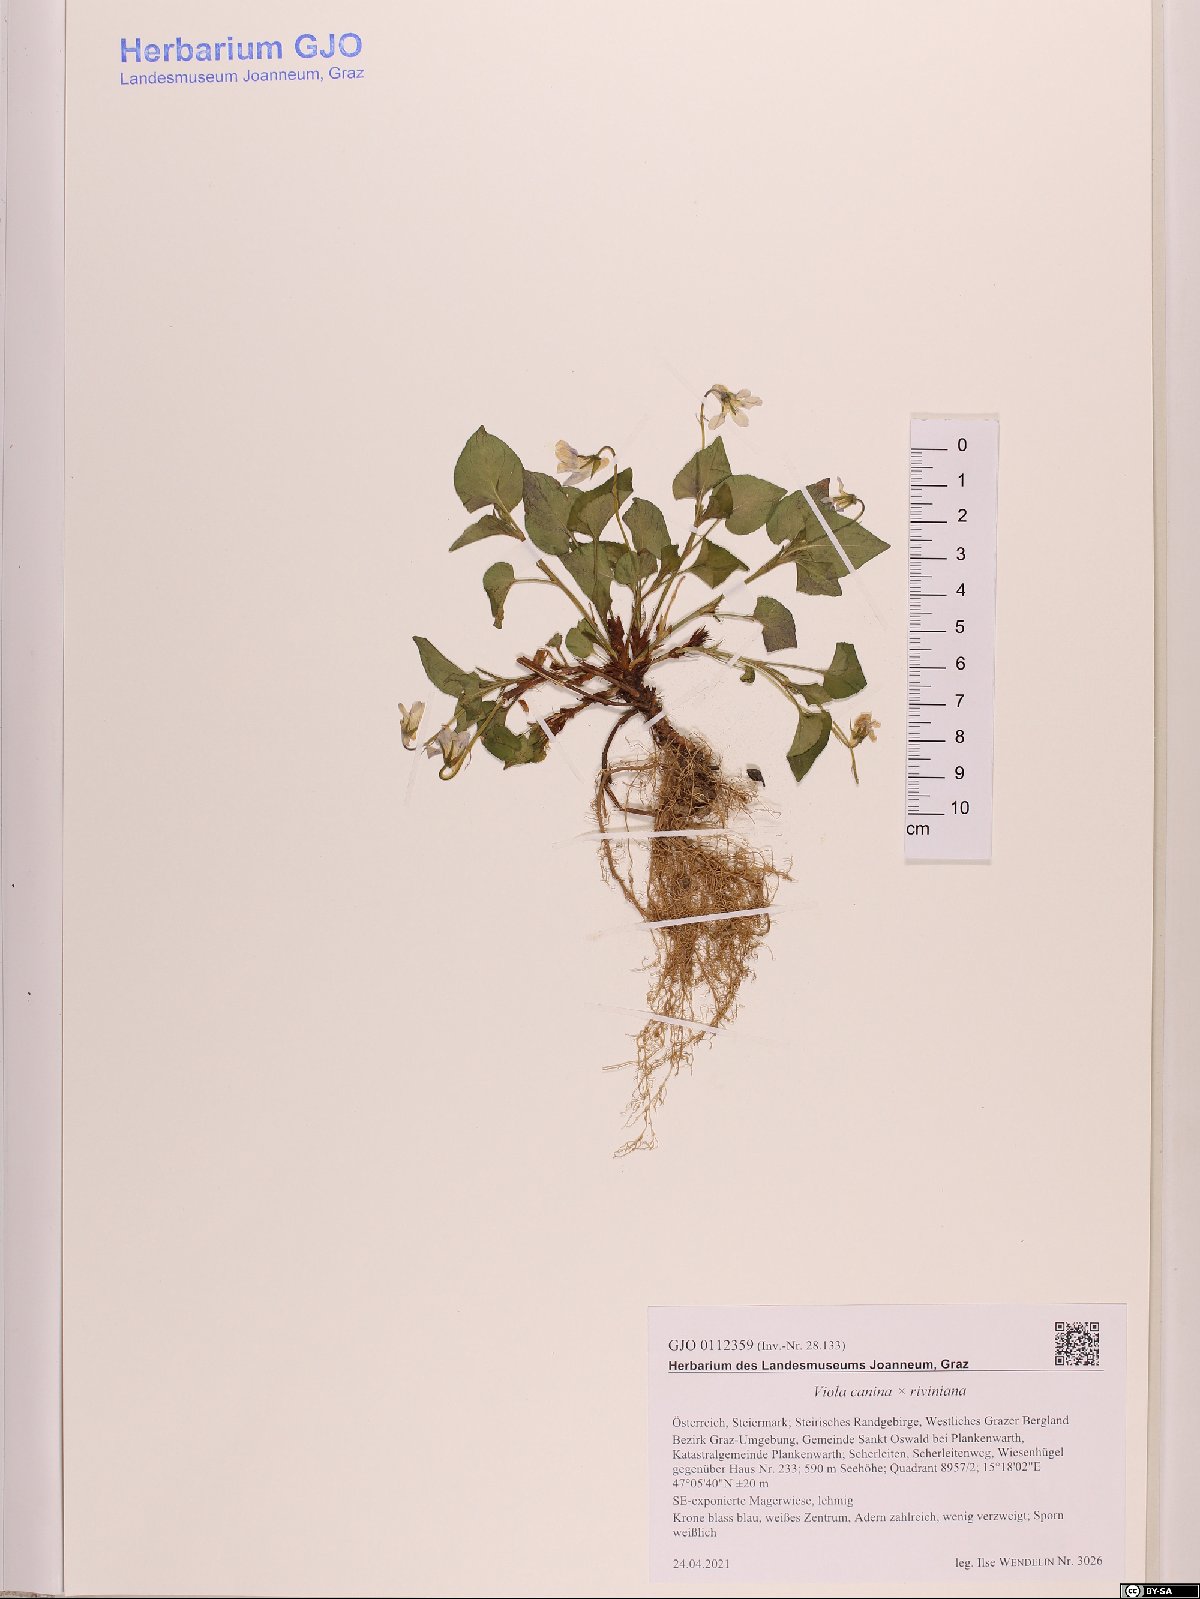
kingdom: Plantae
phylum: Tracheophyta
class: Magnoliopsida
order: Malpighiales
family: Violaceae
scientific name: Violaceae
